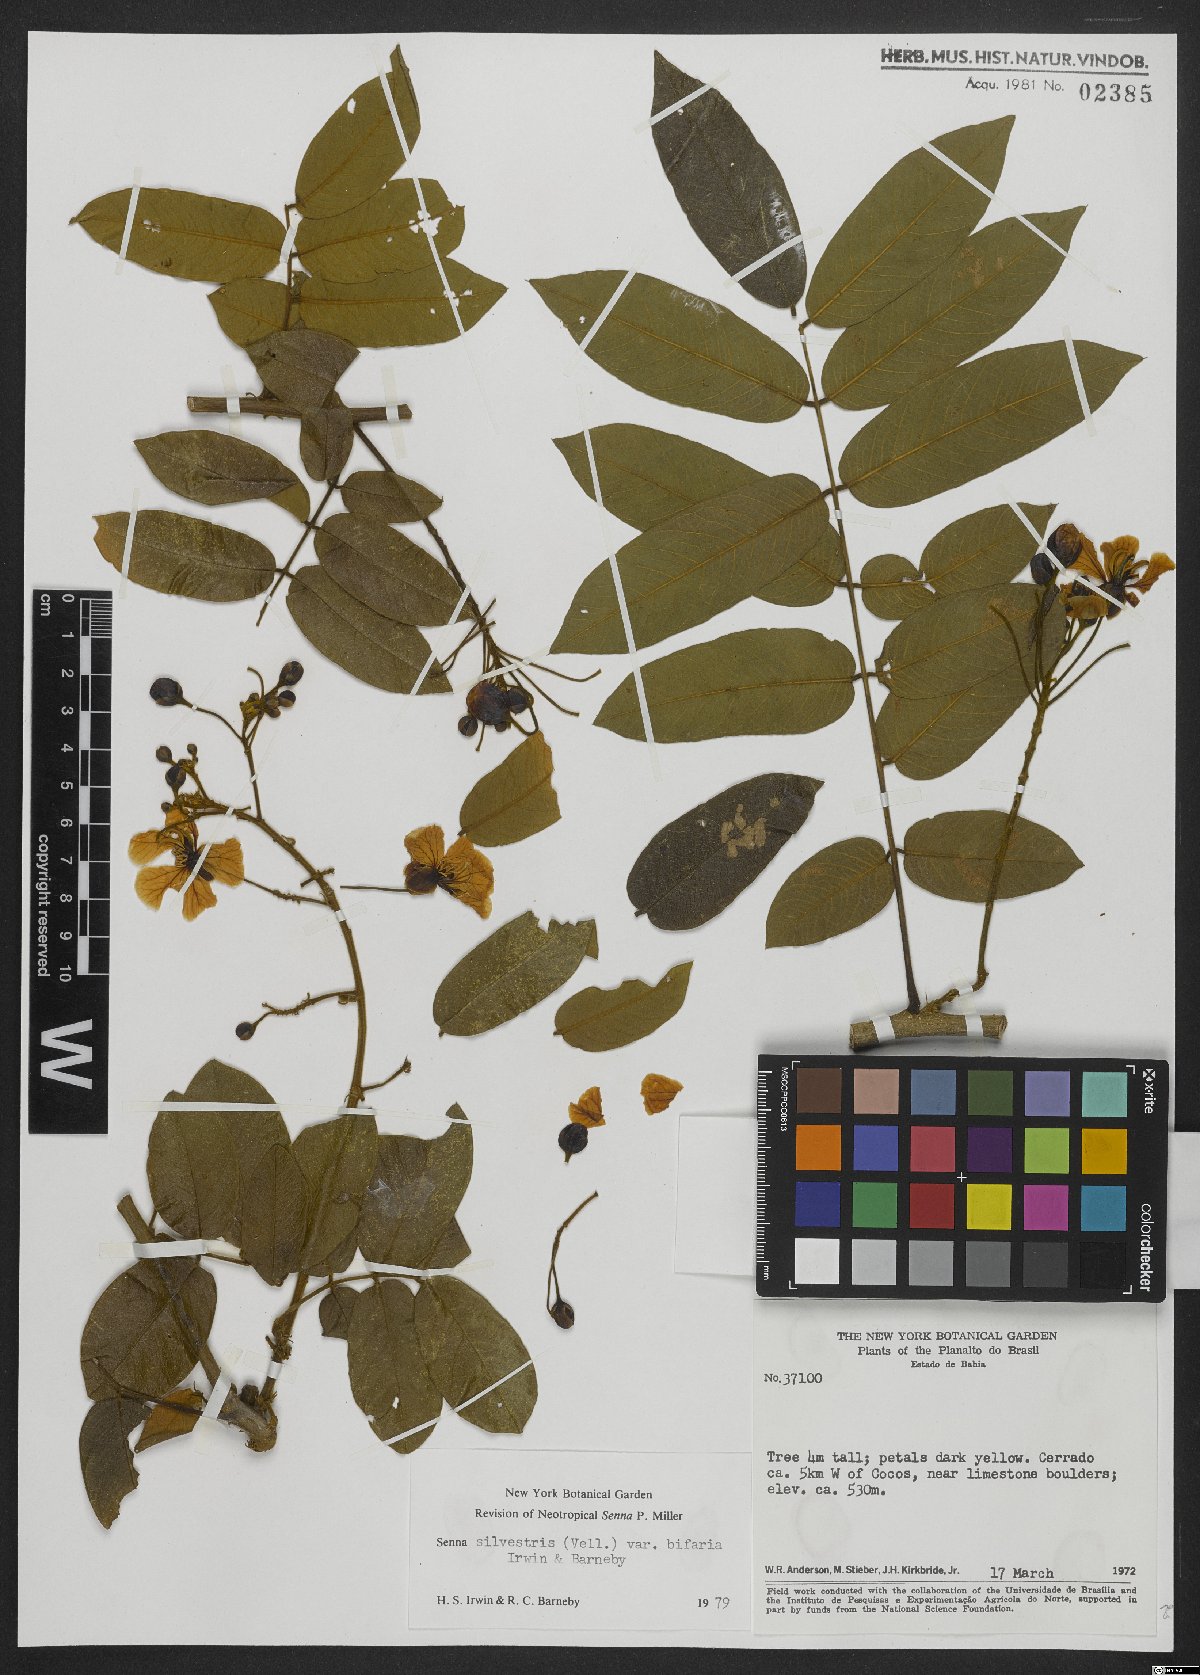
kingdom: Plantae
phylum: Tracheophyta
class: Magnoliopsida
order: Fabales
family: Fabaceae
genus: Senna
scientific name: Senna silvestris
